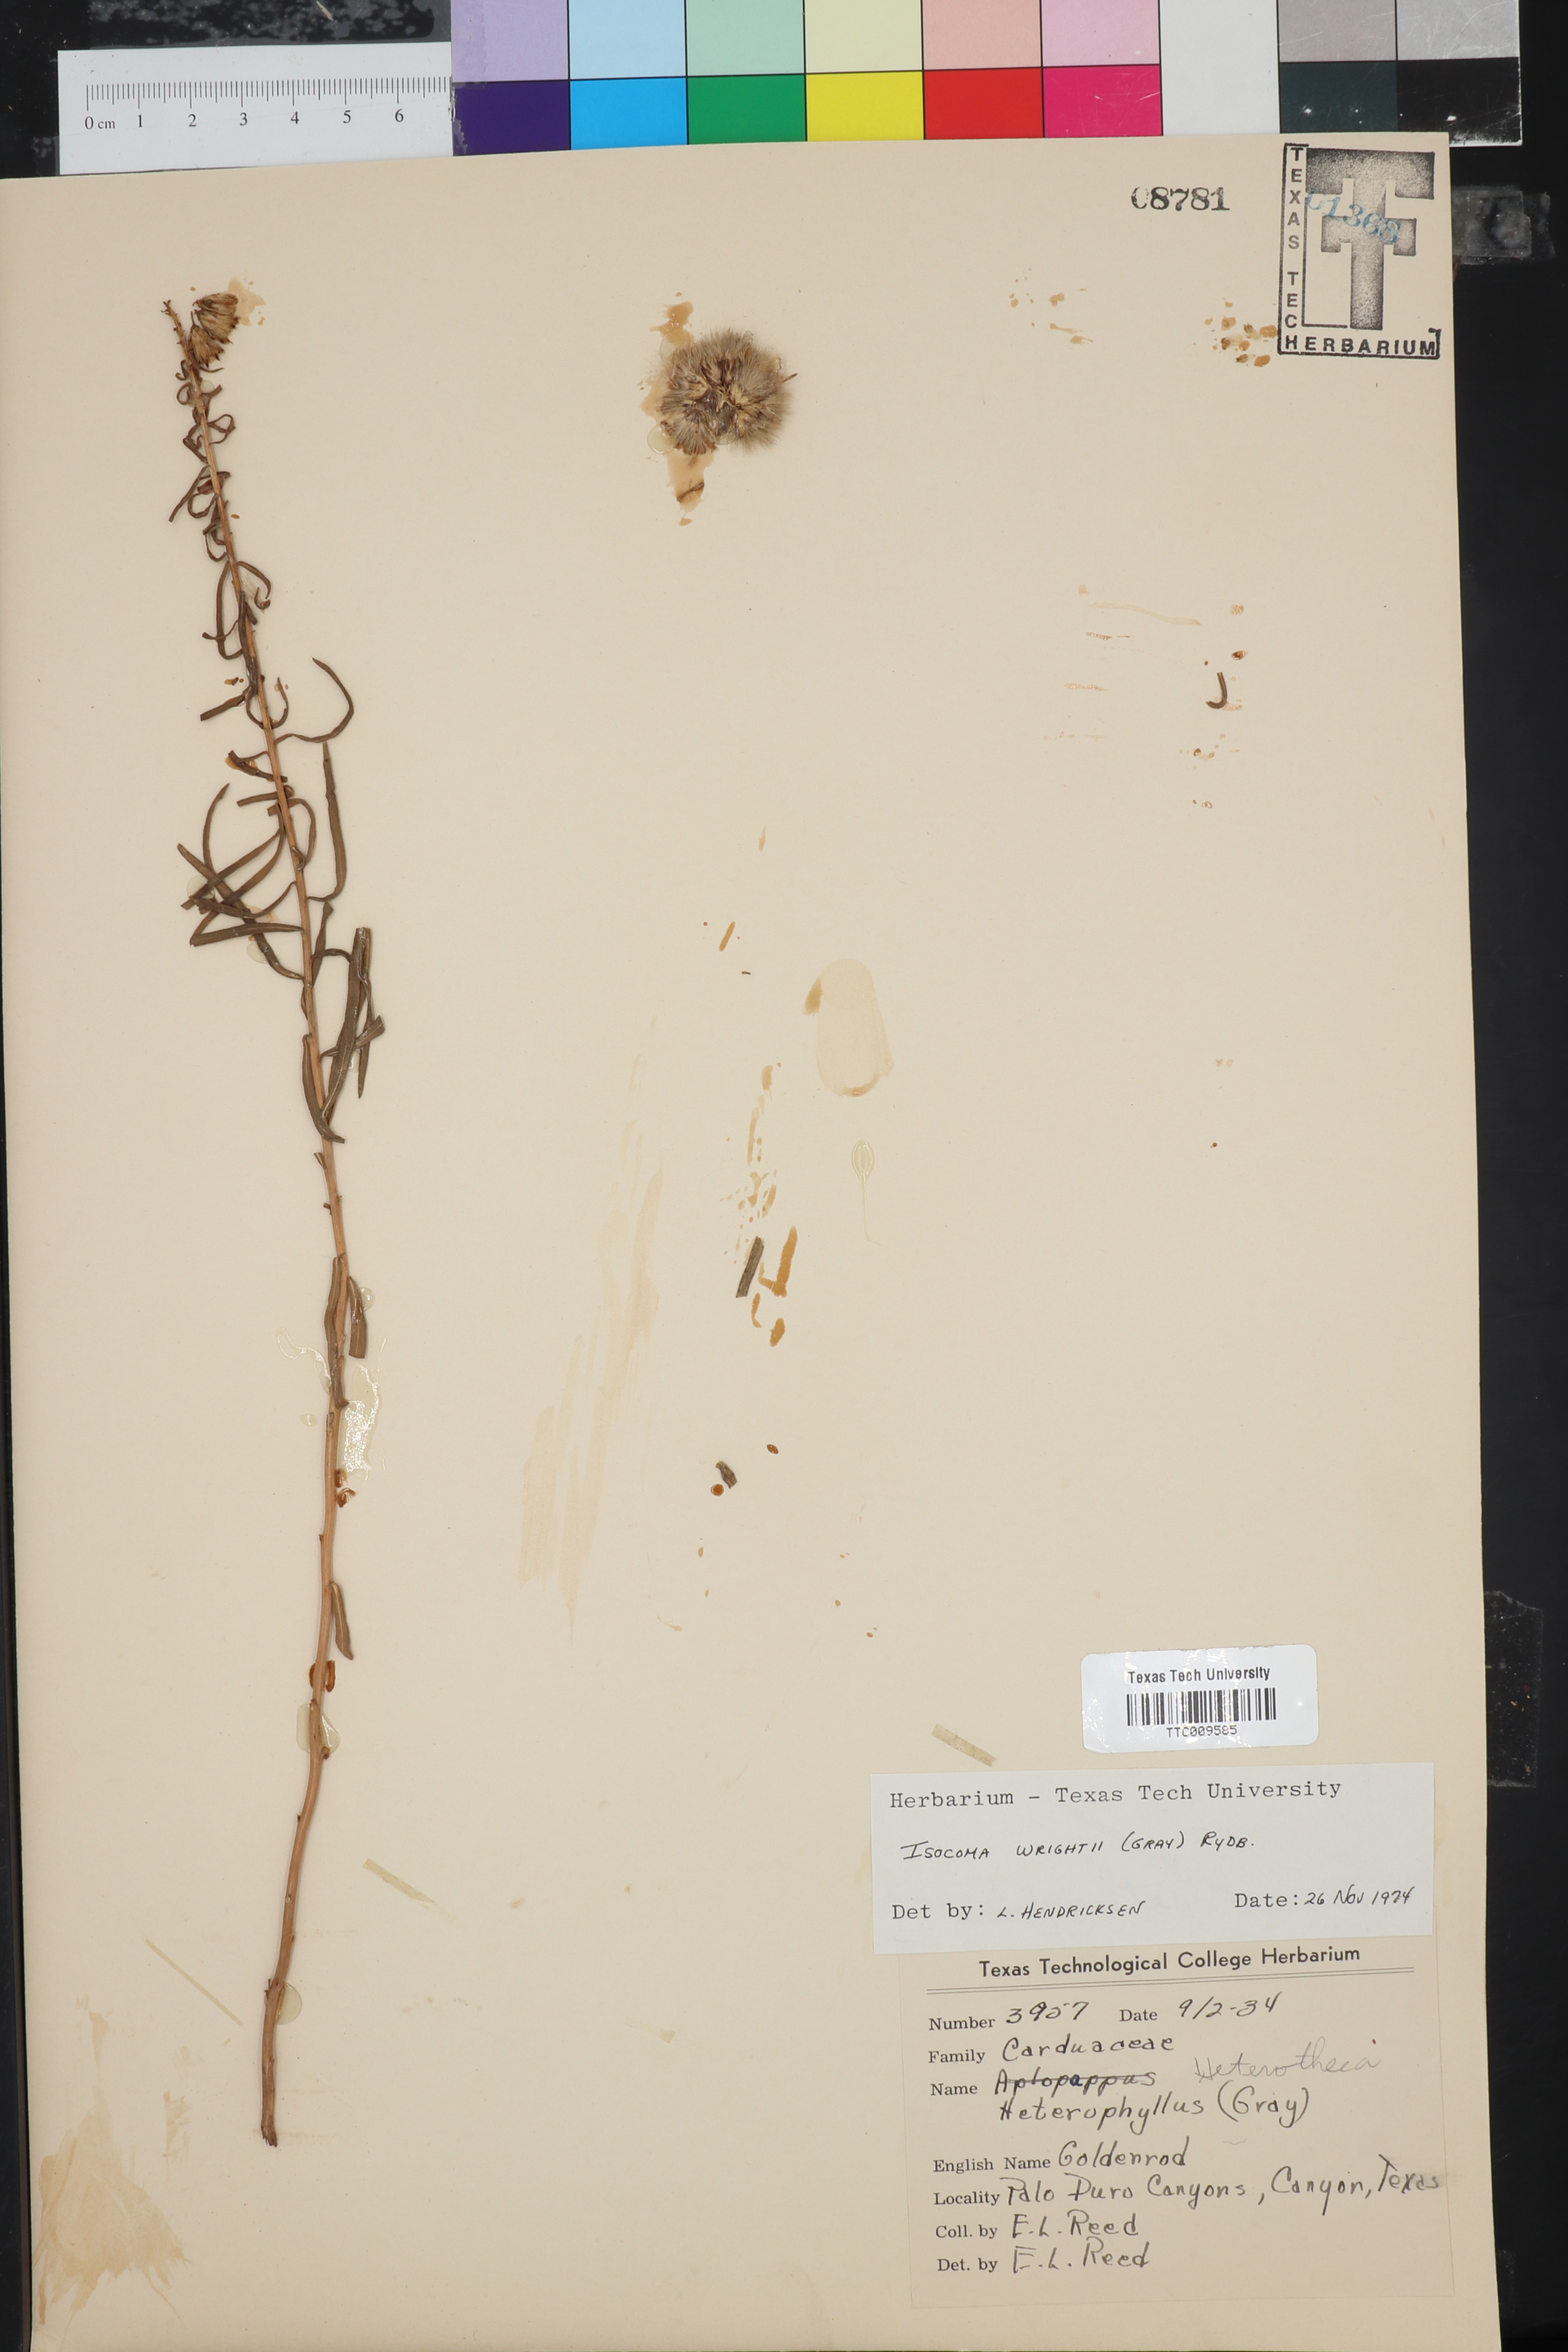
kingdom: Plantae
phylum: Tracheophyta
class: Magnoliopsida
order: Asterales
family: Asteraceae
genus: Isocoma
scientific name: Isocoma pluriflora
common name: Southern jimmyweed
